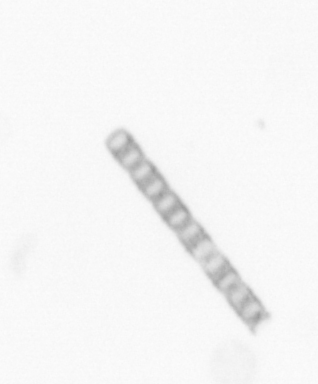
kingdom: Chromista
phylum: Ochrophyta
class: Bacillariophyceae
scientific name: Bacillariophyceae
